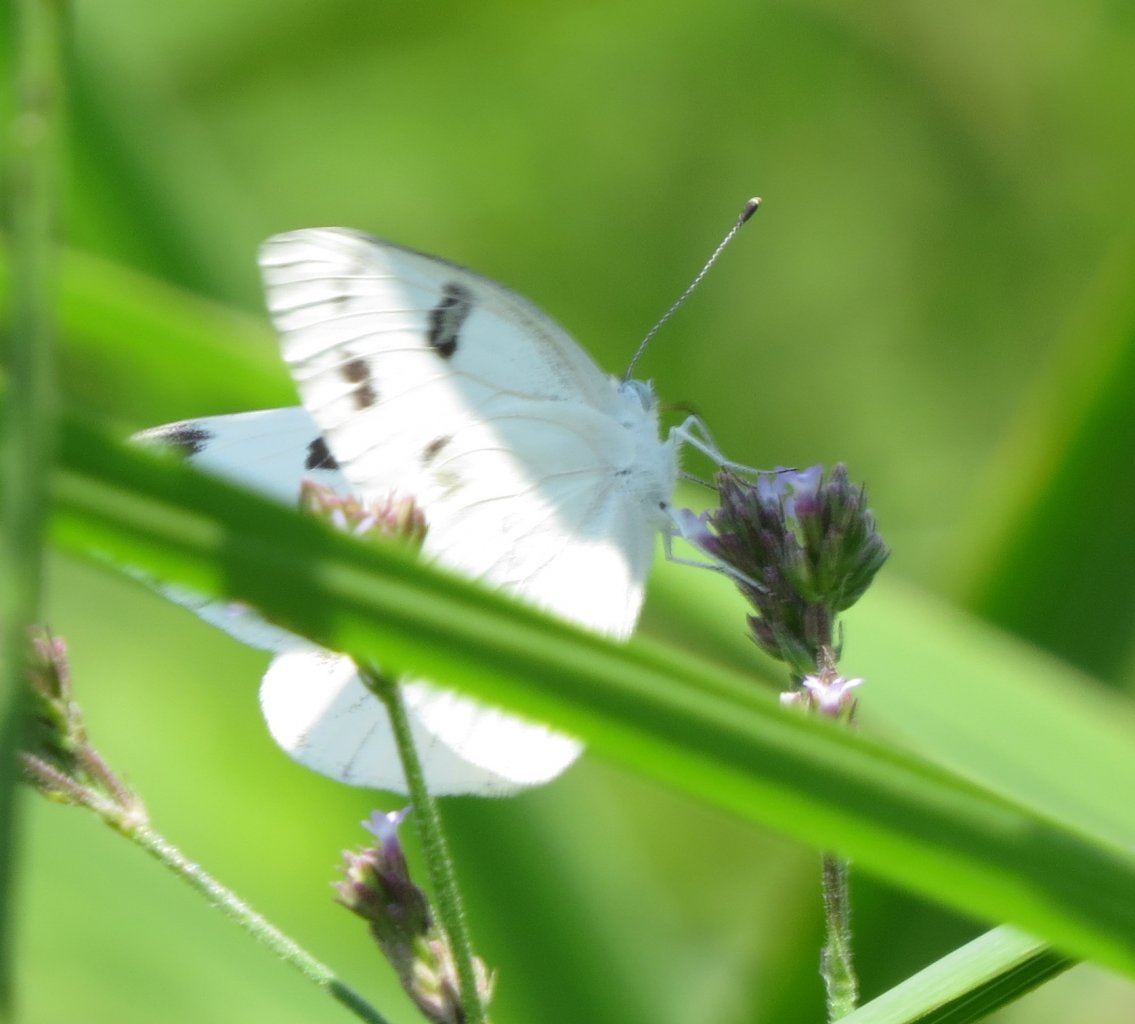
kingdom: Animalia
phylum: Arthropoda
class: Insecta
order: Lepidoptera
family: Pieridae
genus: Pontia
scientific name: Pontia protodice
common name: Checkered White
